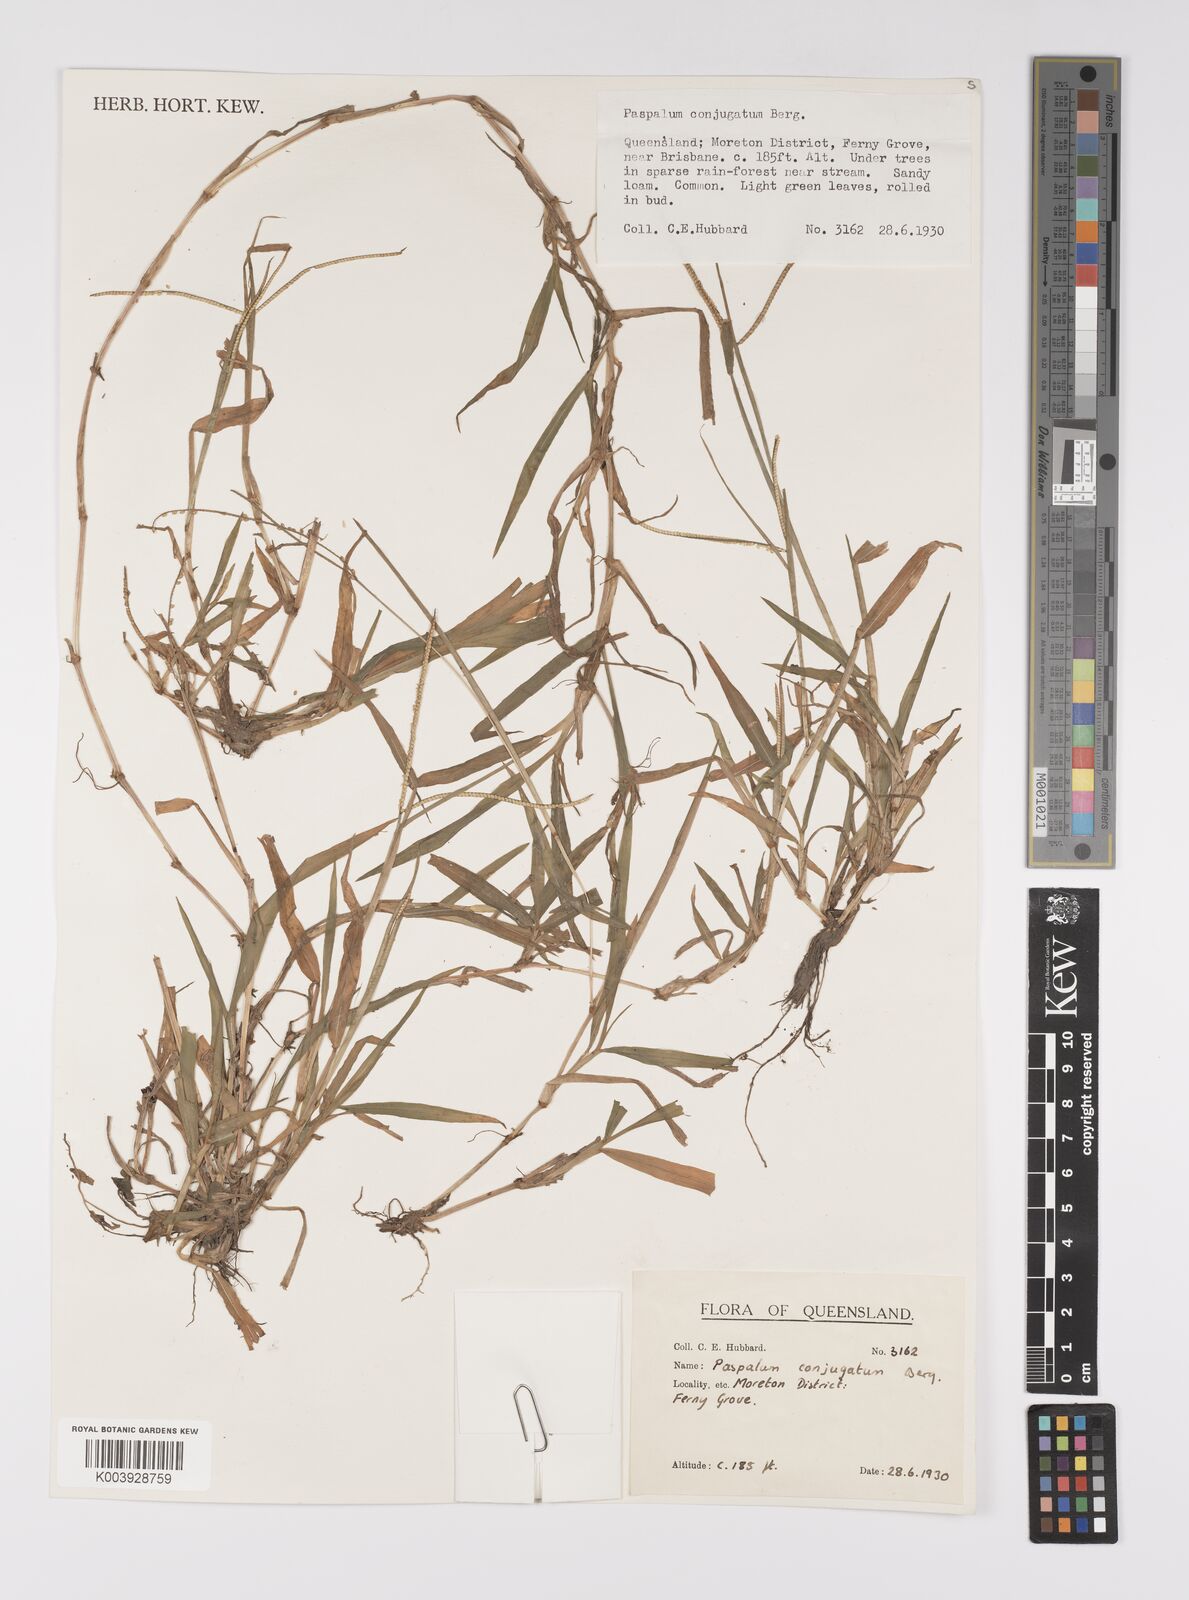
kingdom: Plantae
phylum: Tracheophyta
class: Liliopsida
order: Poales
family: Poaceae
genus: Paspalum
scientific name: Paspalum conjugatum
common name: Hilograss
